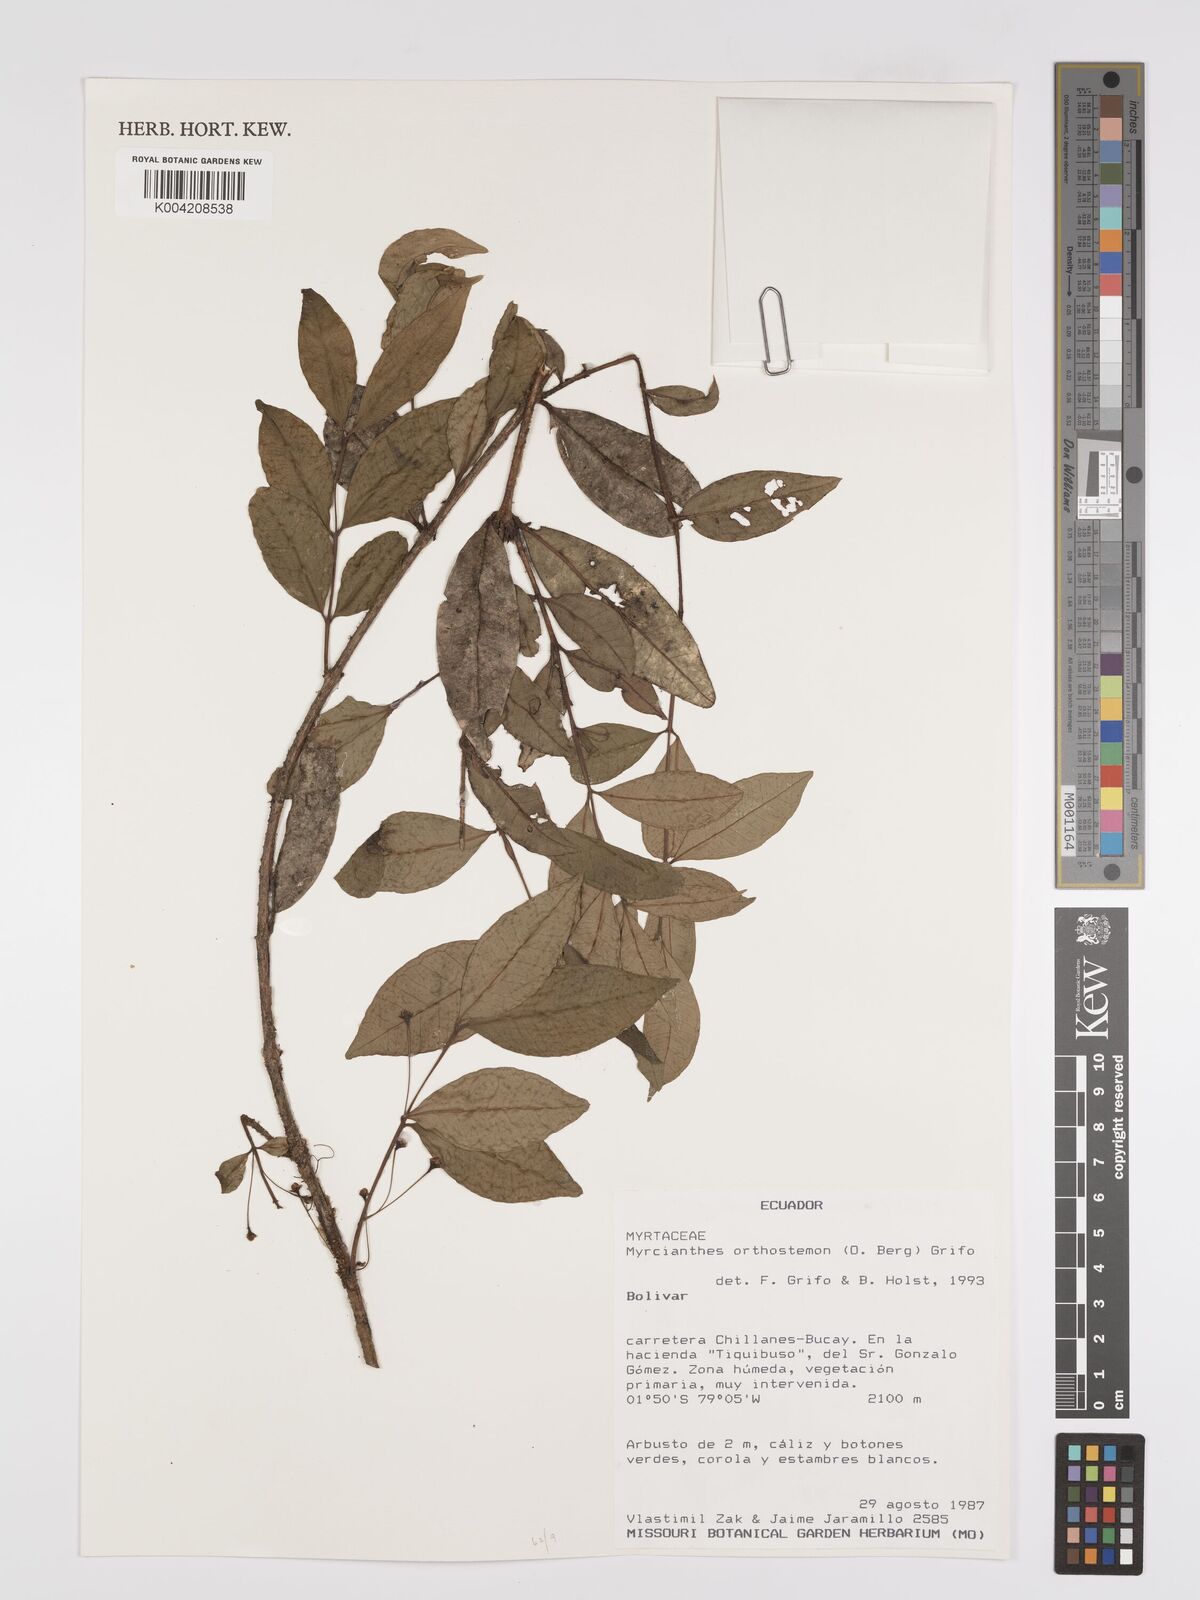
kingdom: Plantae
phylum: Tracheophyta
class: Magnoliopsida
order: Myrtales
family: Myrtaceae
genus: Myrcianthes
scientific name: Myrcianthes orthostemon
